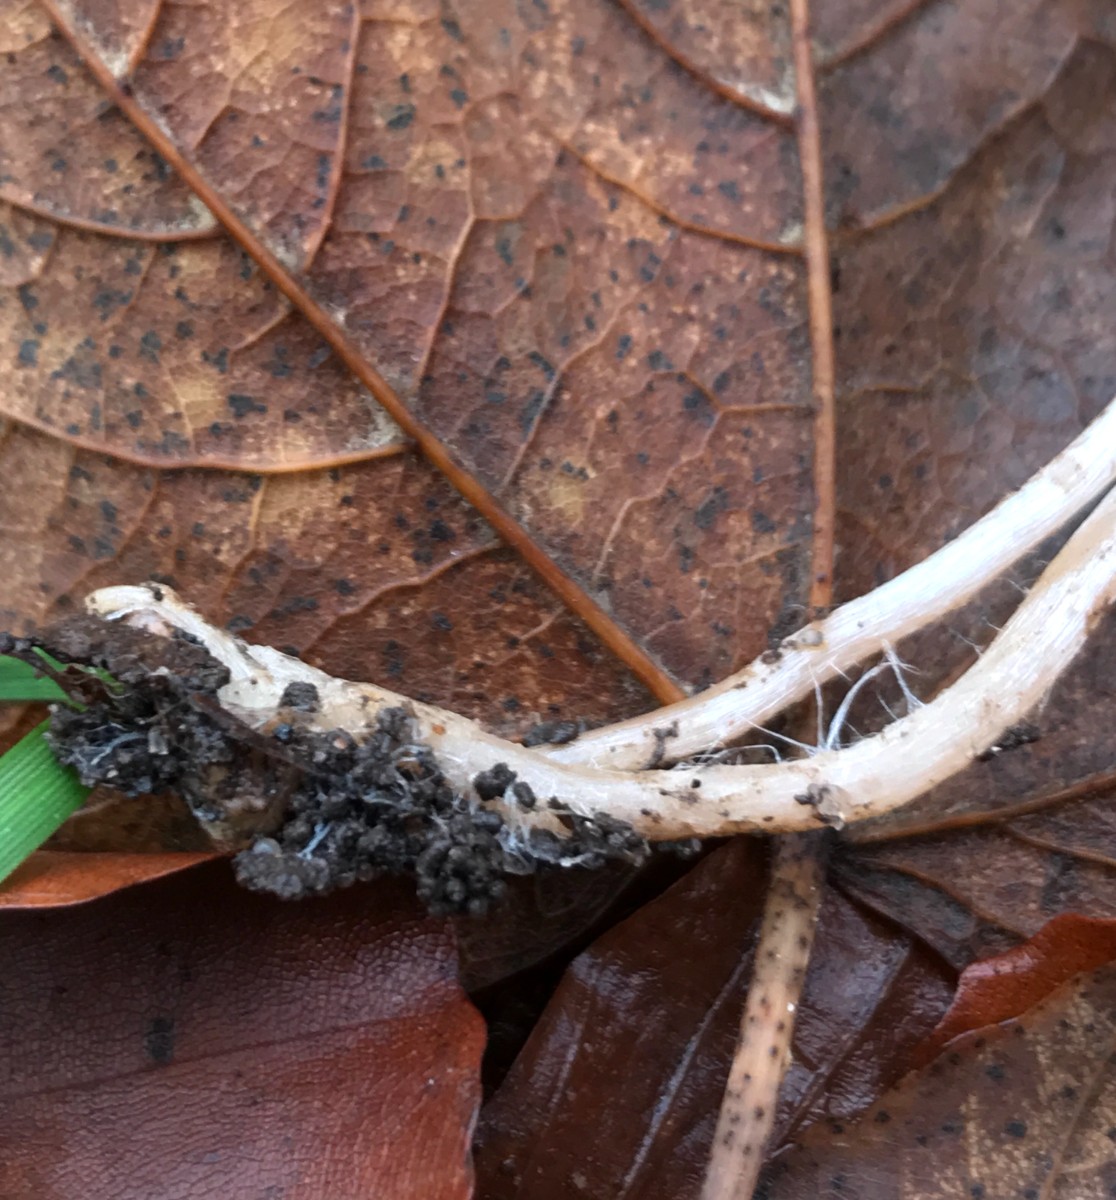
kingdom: Fungi
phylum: Basidiomycota
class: Agaricomycetes
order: Agaricales
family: Psathyrellaceae
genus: Psathyrella
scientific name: Psathyrella
